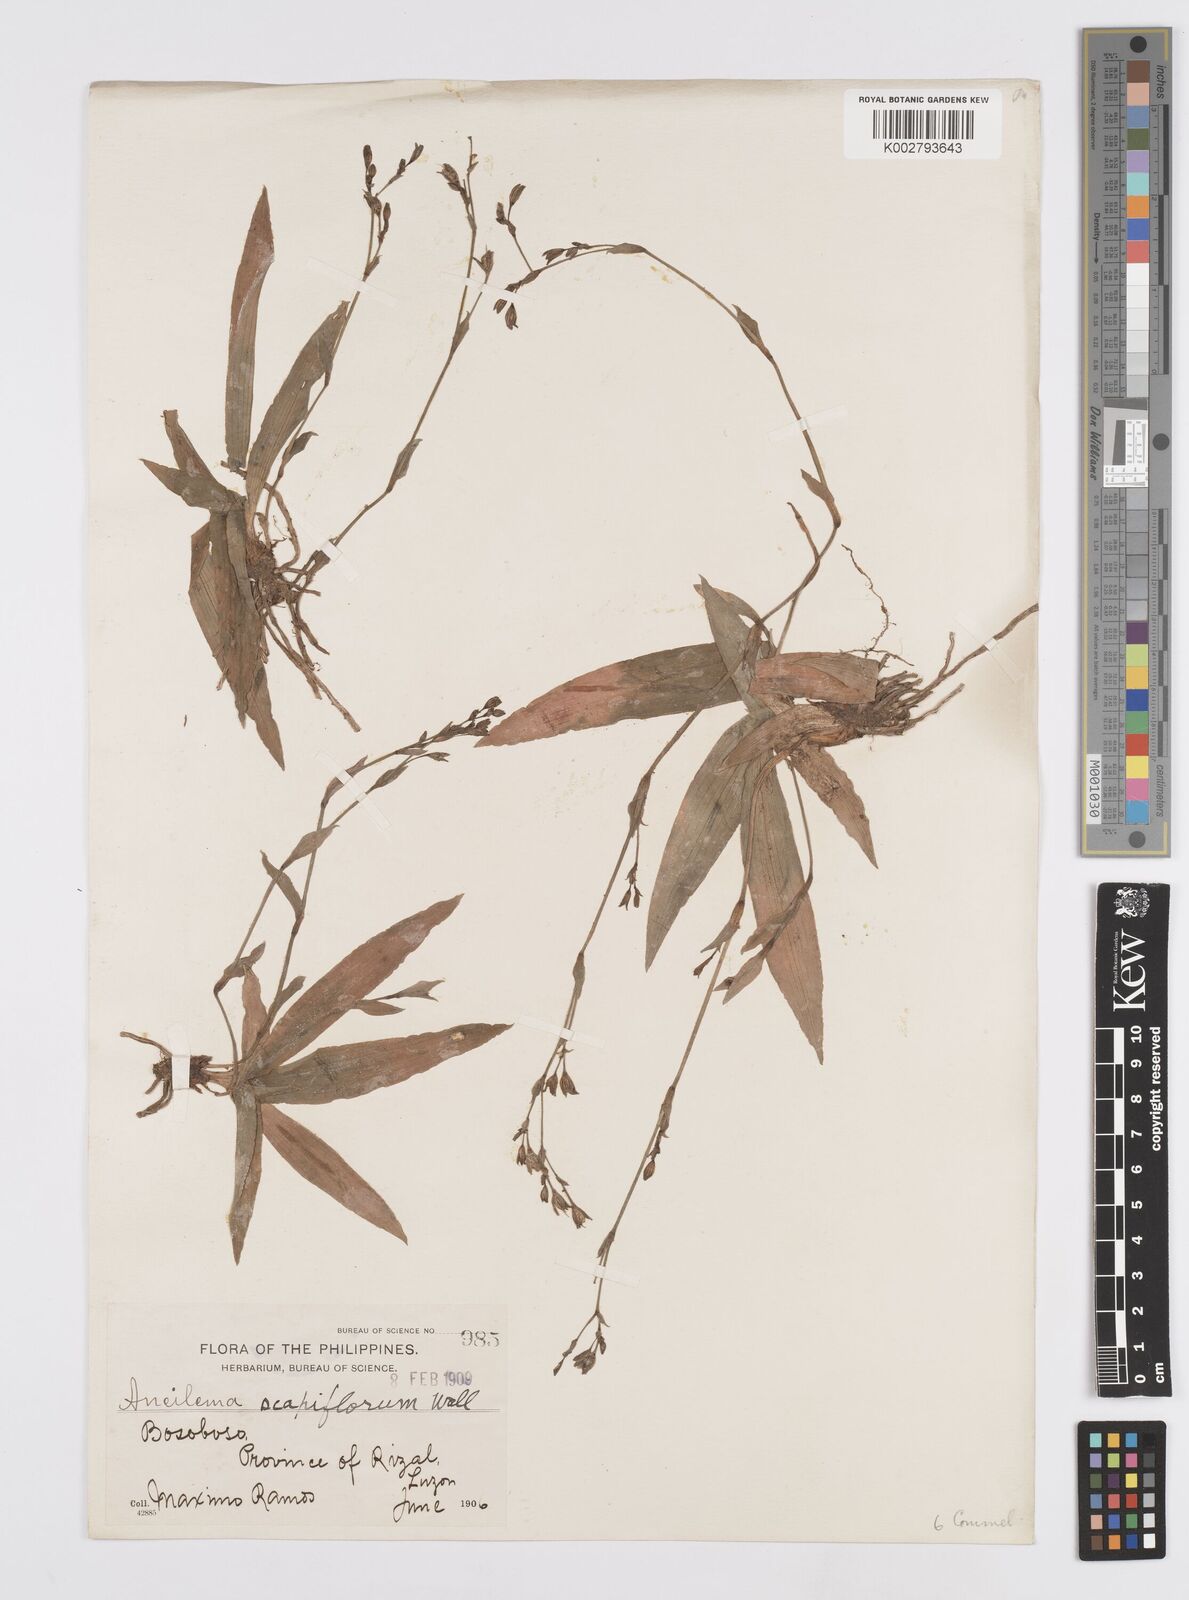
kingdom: Plantae
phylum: Tracheophyta
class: Liliopsida
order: Commelinales
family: Commelinaceae
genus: Murdannia
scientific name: Murdannia edulis
